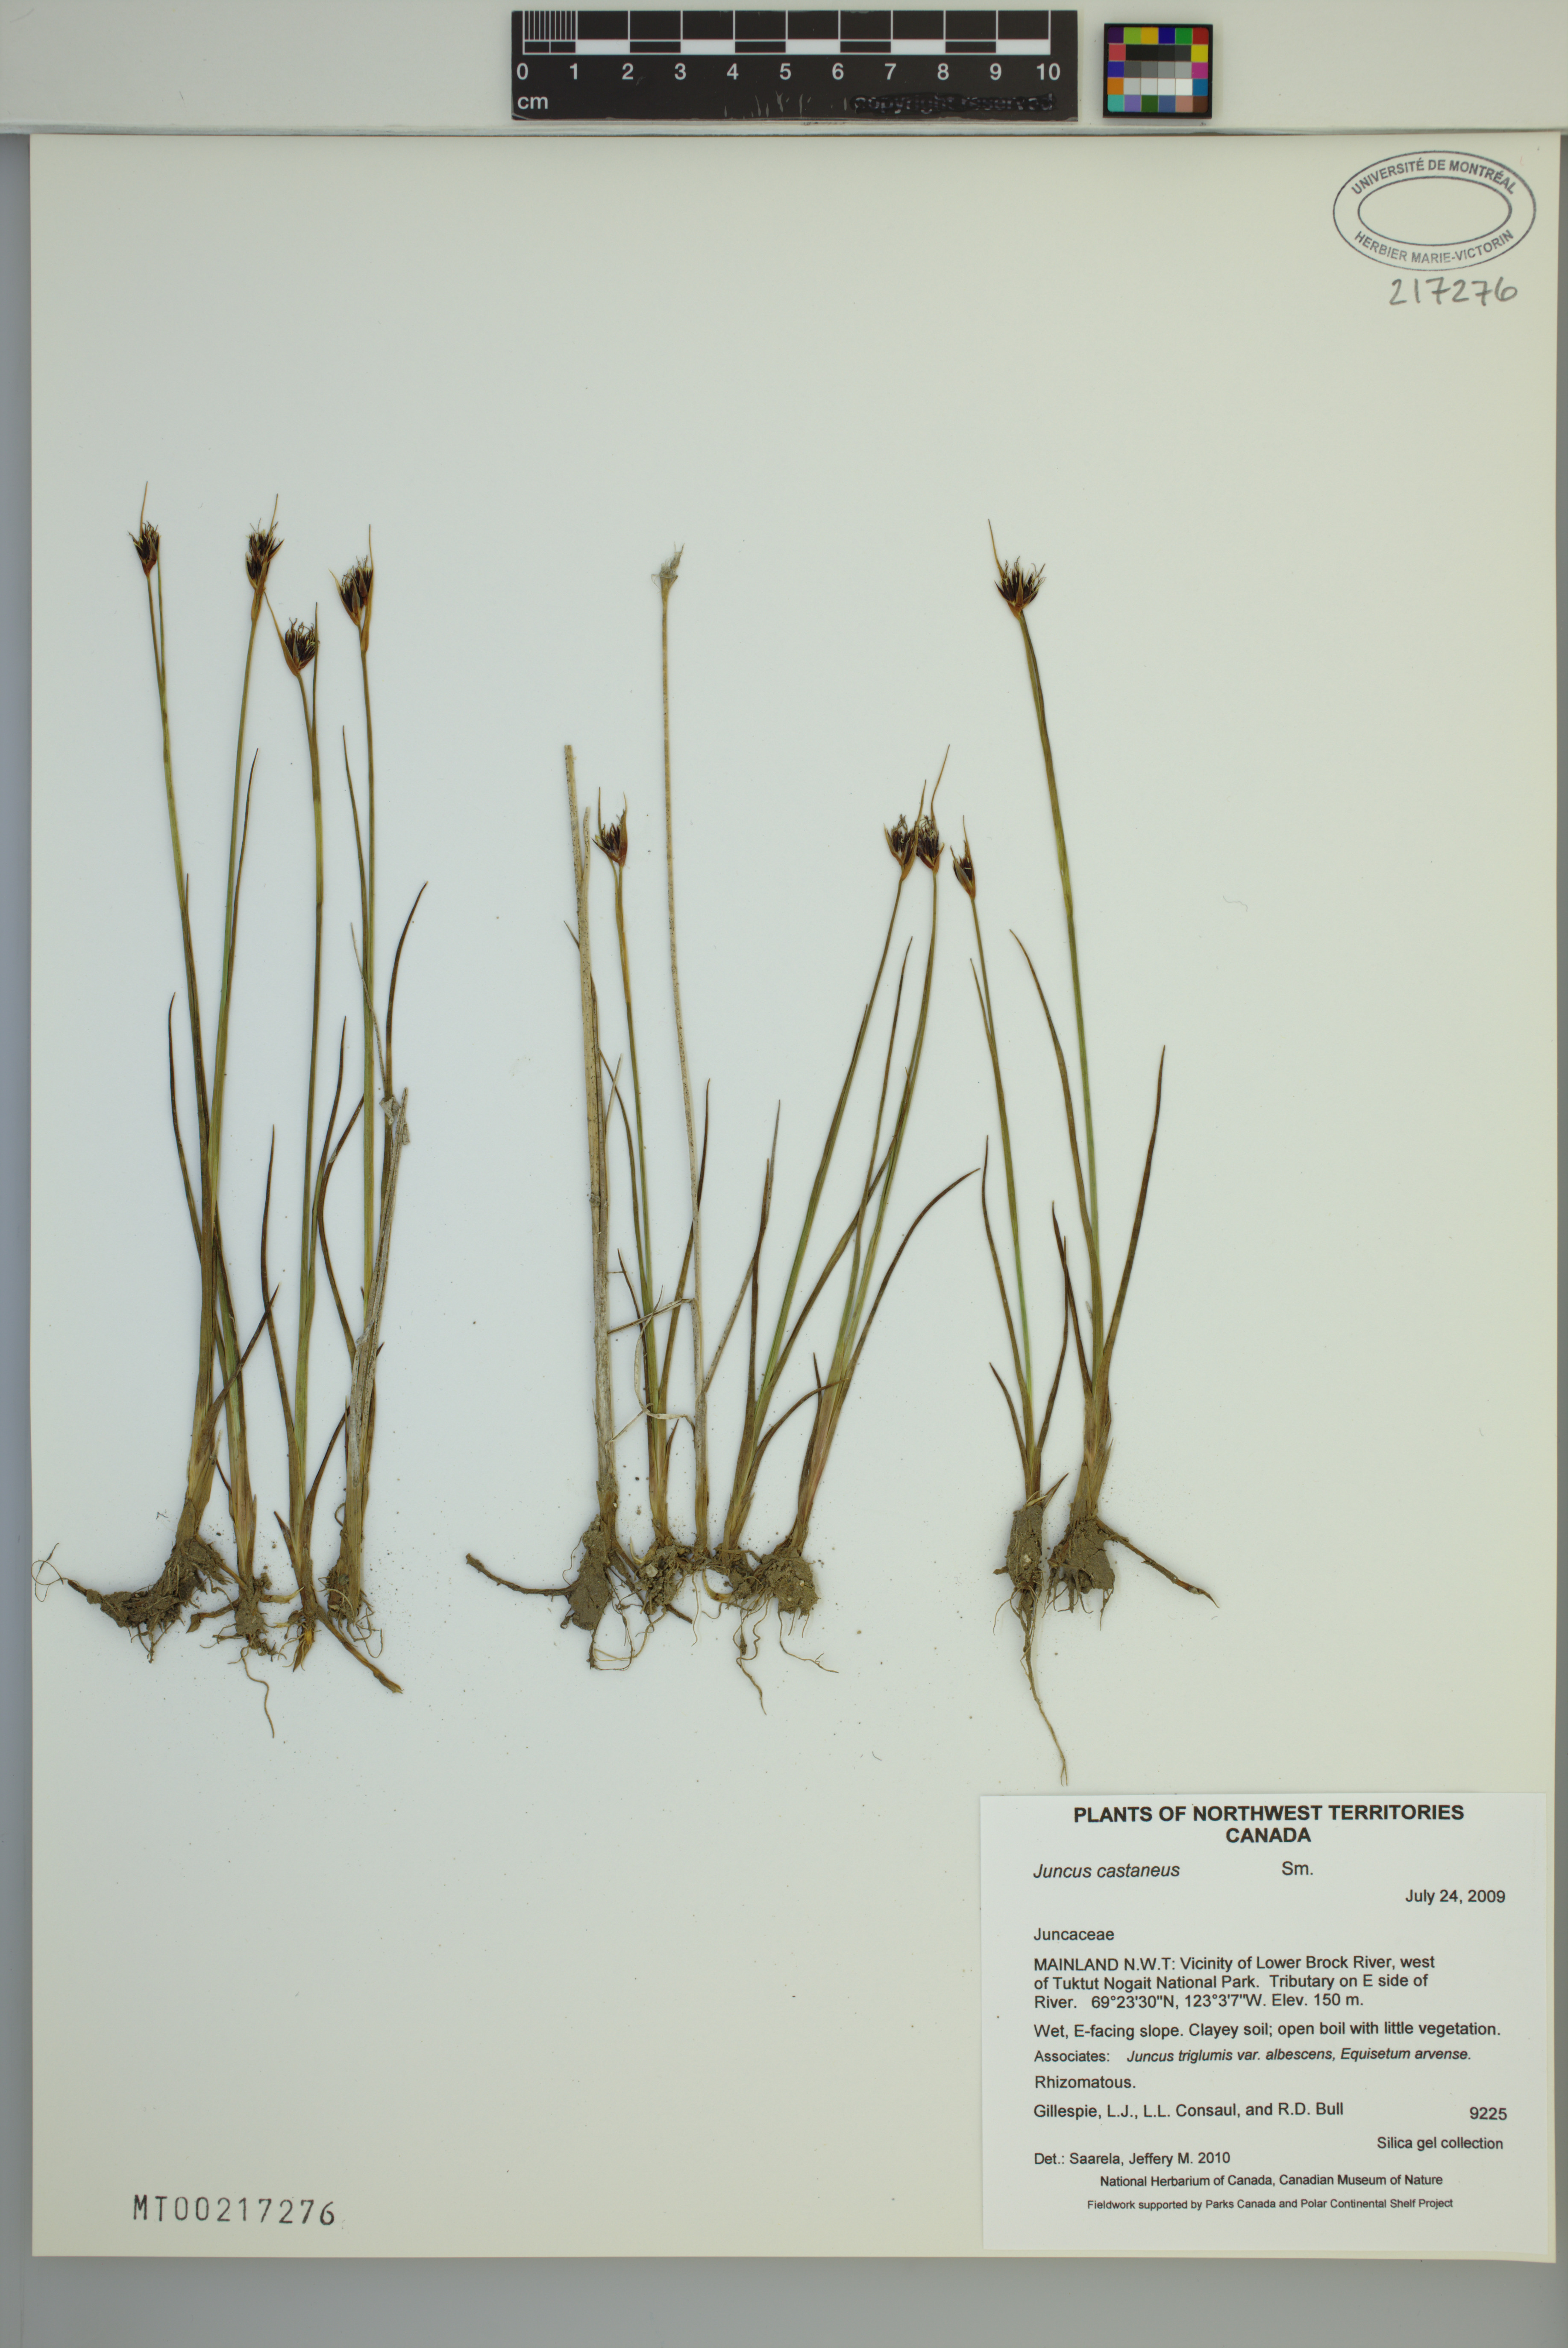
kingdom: Plantae
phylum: Tracheophyta
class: Liliopsida
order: Poales
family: Juncaceae
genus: Juncus
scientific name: Juncus castaneus
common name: Chestnut rush
